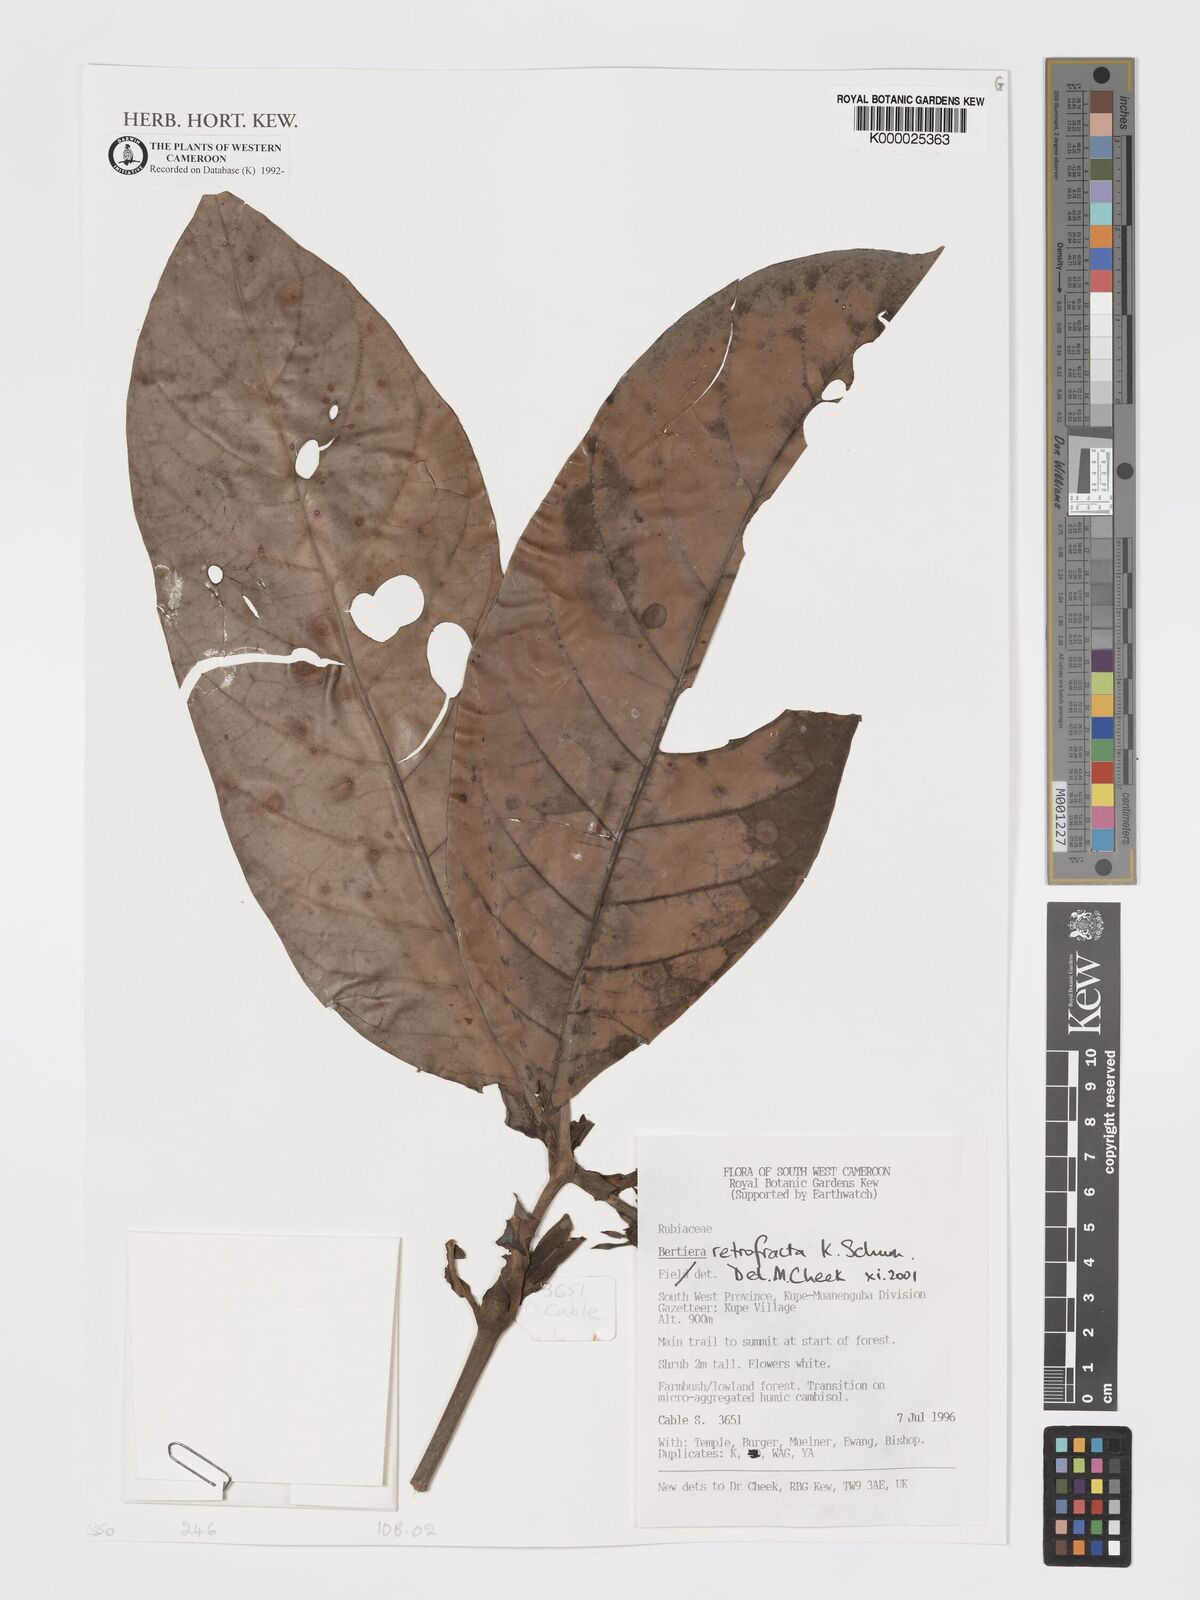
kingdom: Plantae
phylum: Tracheophyta
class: Magnoliopsida
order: Gentianales
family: Rubiaceae
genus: Bertiera
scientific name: Bertiera retrofracta
